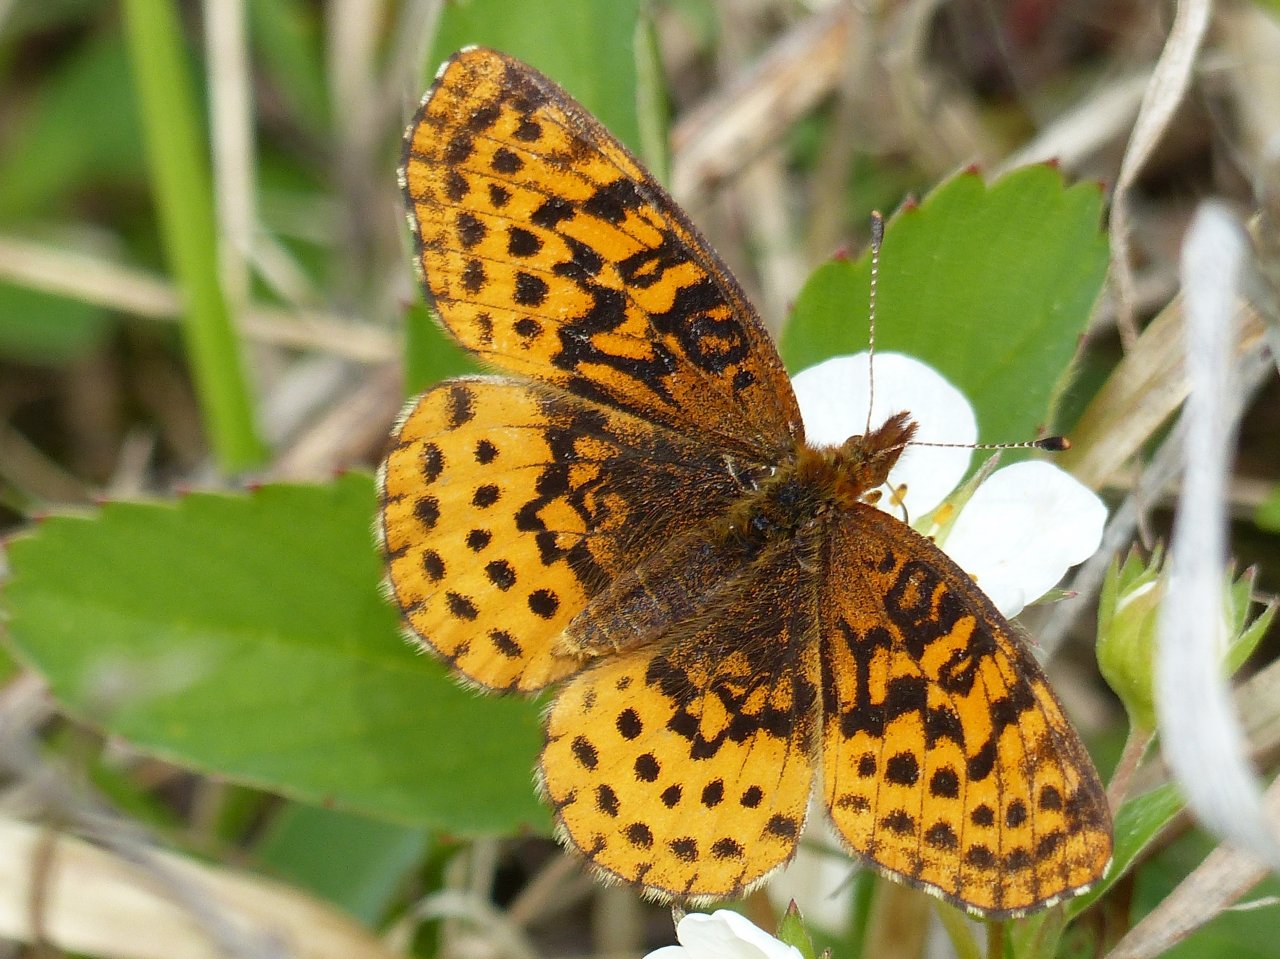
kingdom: Animalia
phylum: Arthropoda
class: Insecta
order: Lepidoptera
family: Nymphalidae
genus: Clossiana
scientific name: Clossiana toddi
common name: Meadow Fritillary
